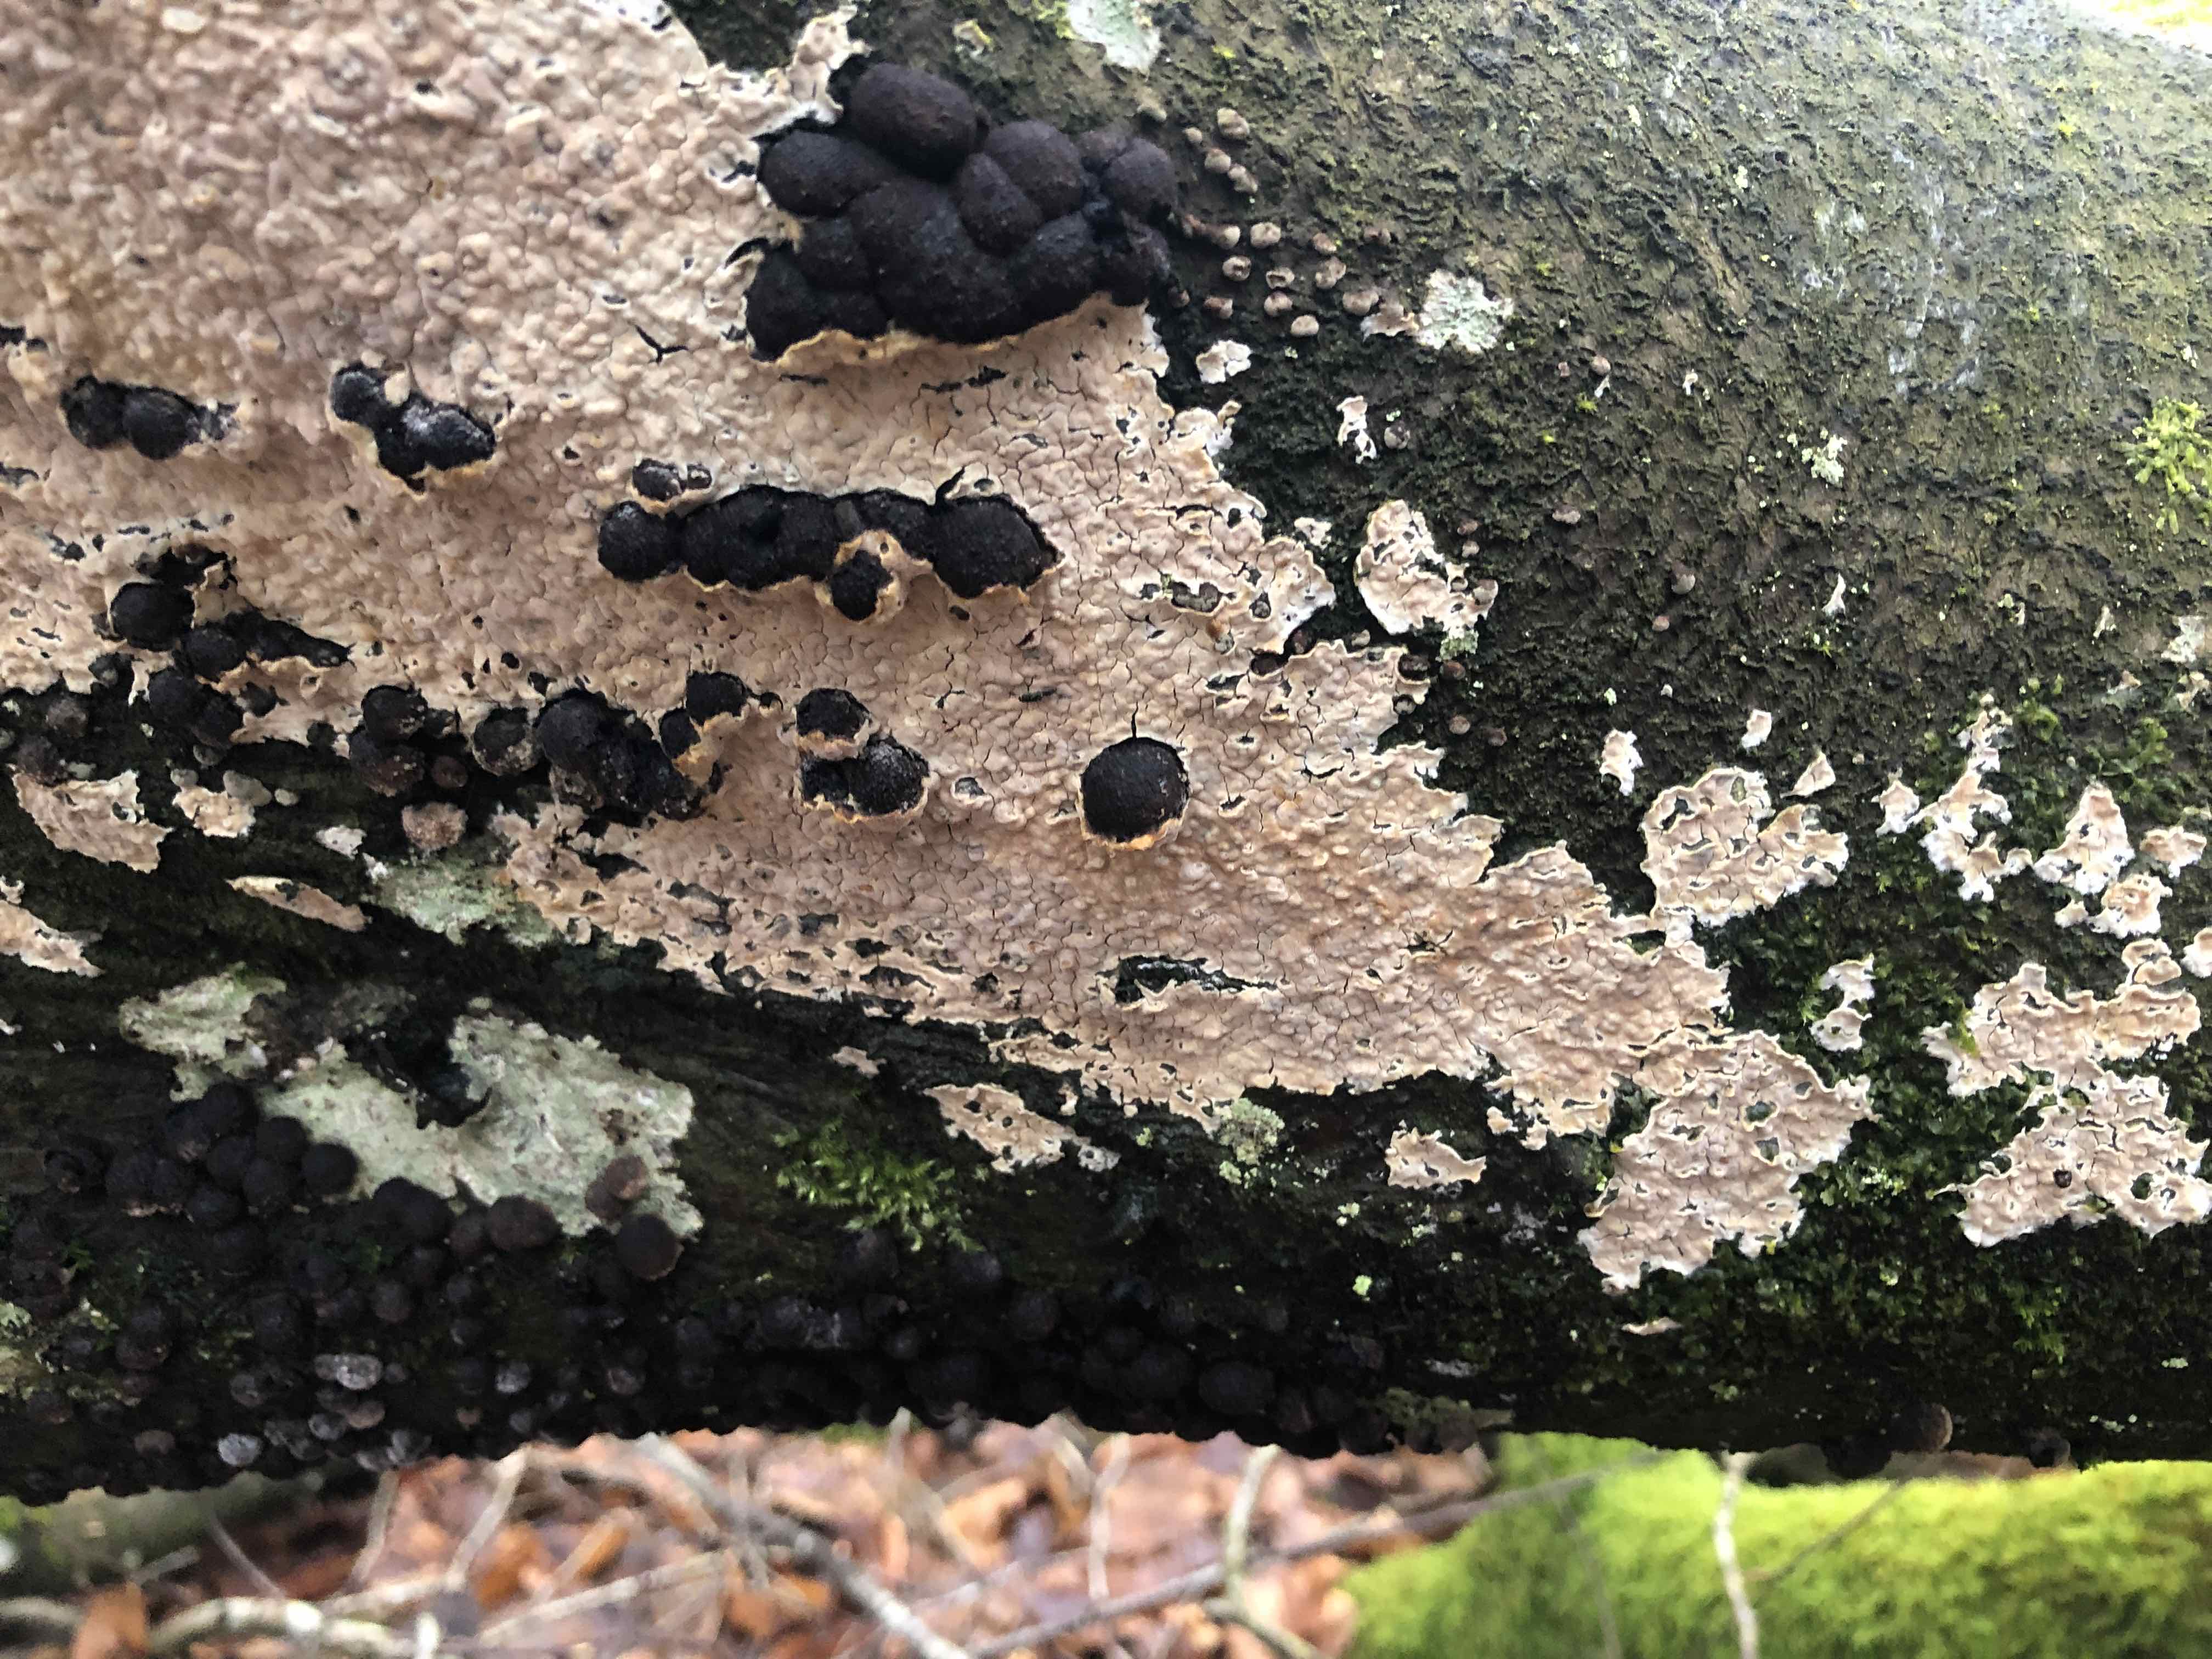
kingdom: Fungi
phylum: Basidiomycota
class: Agaricomycetes
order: Agaricales
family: Physalacriaceae
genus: Cylindrobasidium
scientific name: Cylindrobasidium evolvens
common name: sprækkehinde
